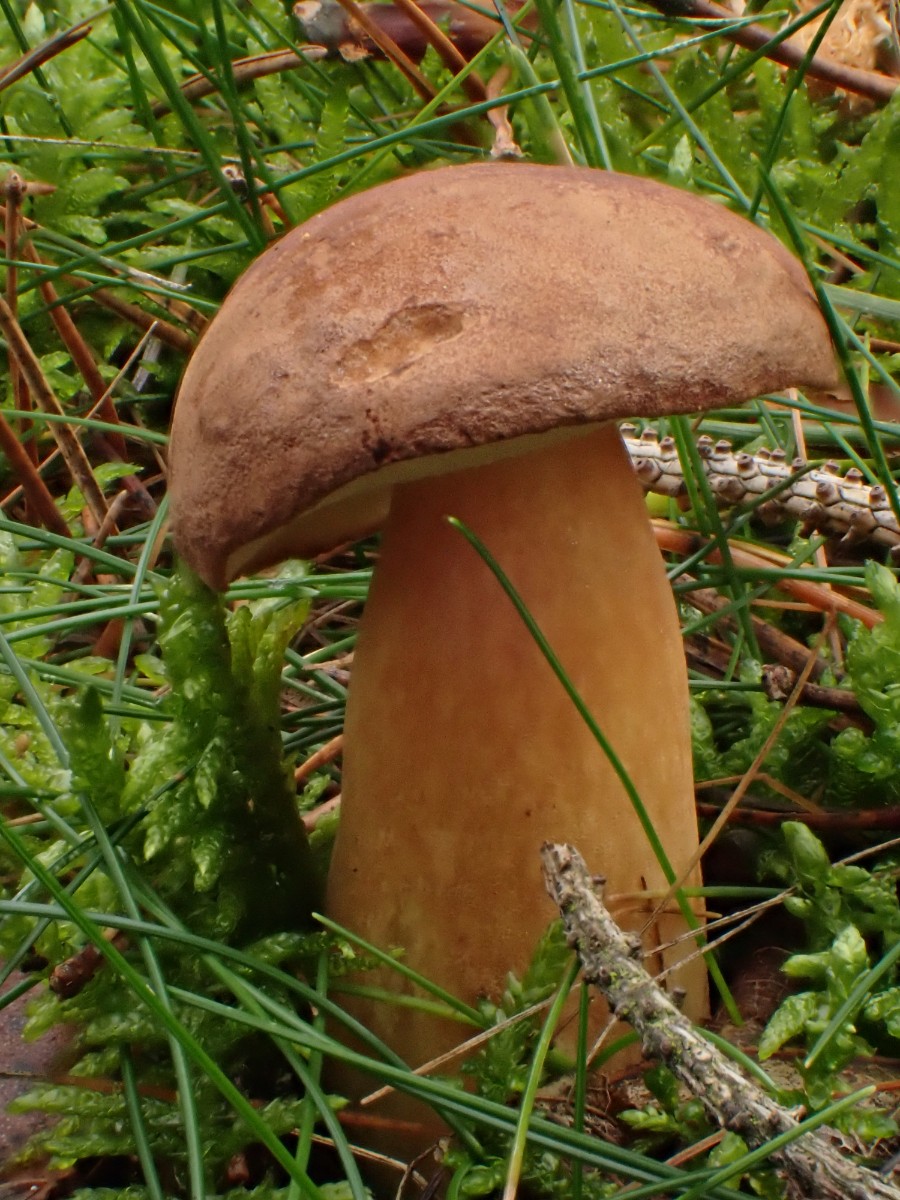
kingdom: Fungi
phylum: Basidiomycota
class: Agaricomycetes
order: Boletales
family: Boletaceae
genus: Imleria
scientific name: Imleria badia
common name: brunstokket rørhat
